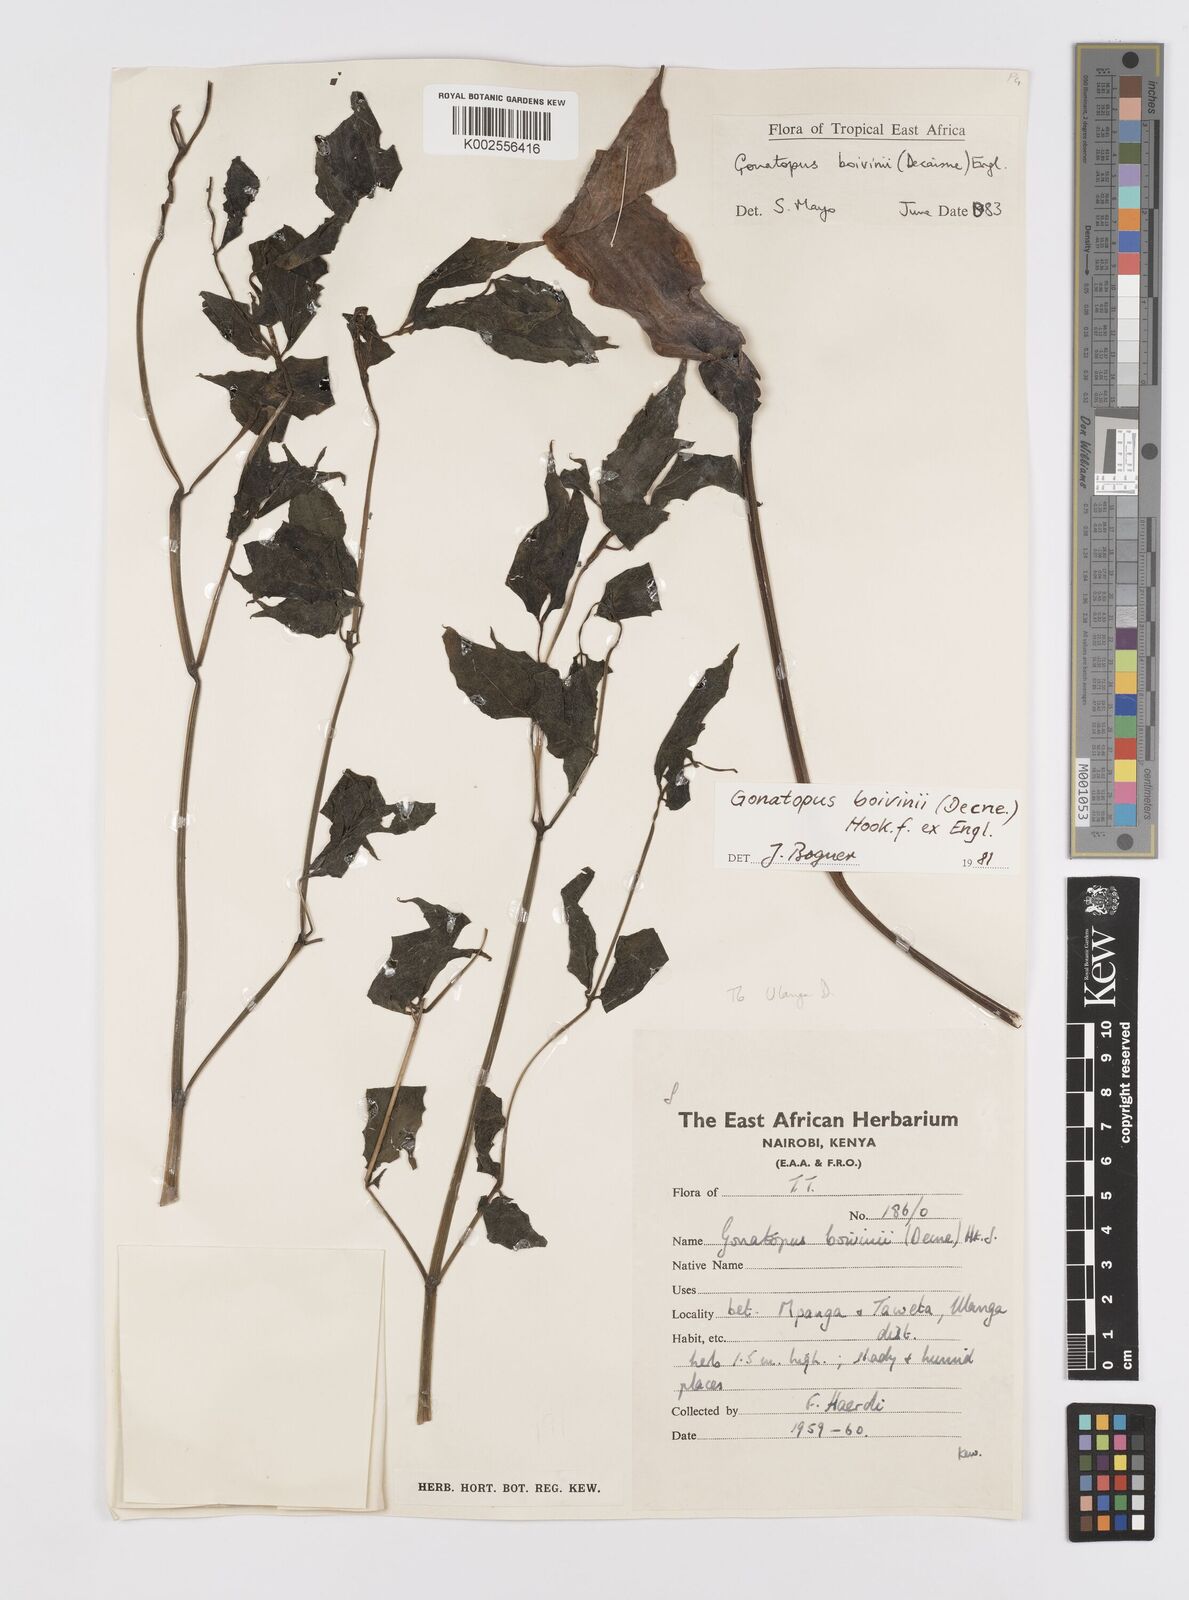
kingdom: Plantae
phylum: Tracheophyta
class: Liliopsida
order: Alismatales
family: Araceae
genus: Gonatopus
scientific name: Gonatopus boivinii
